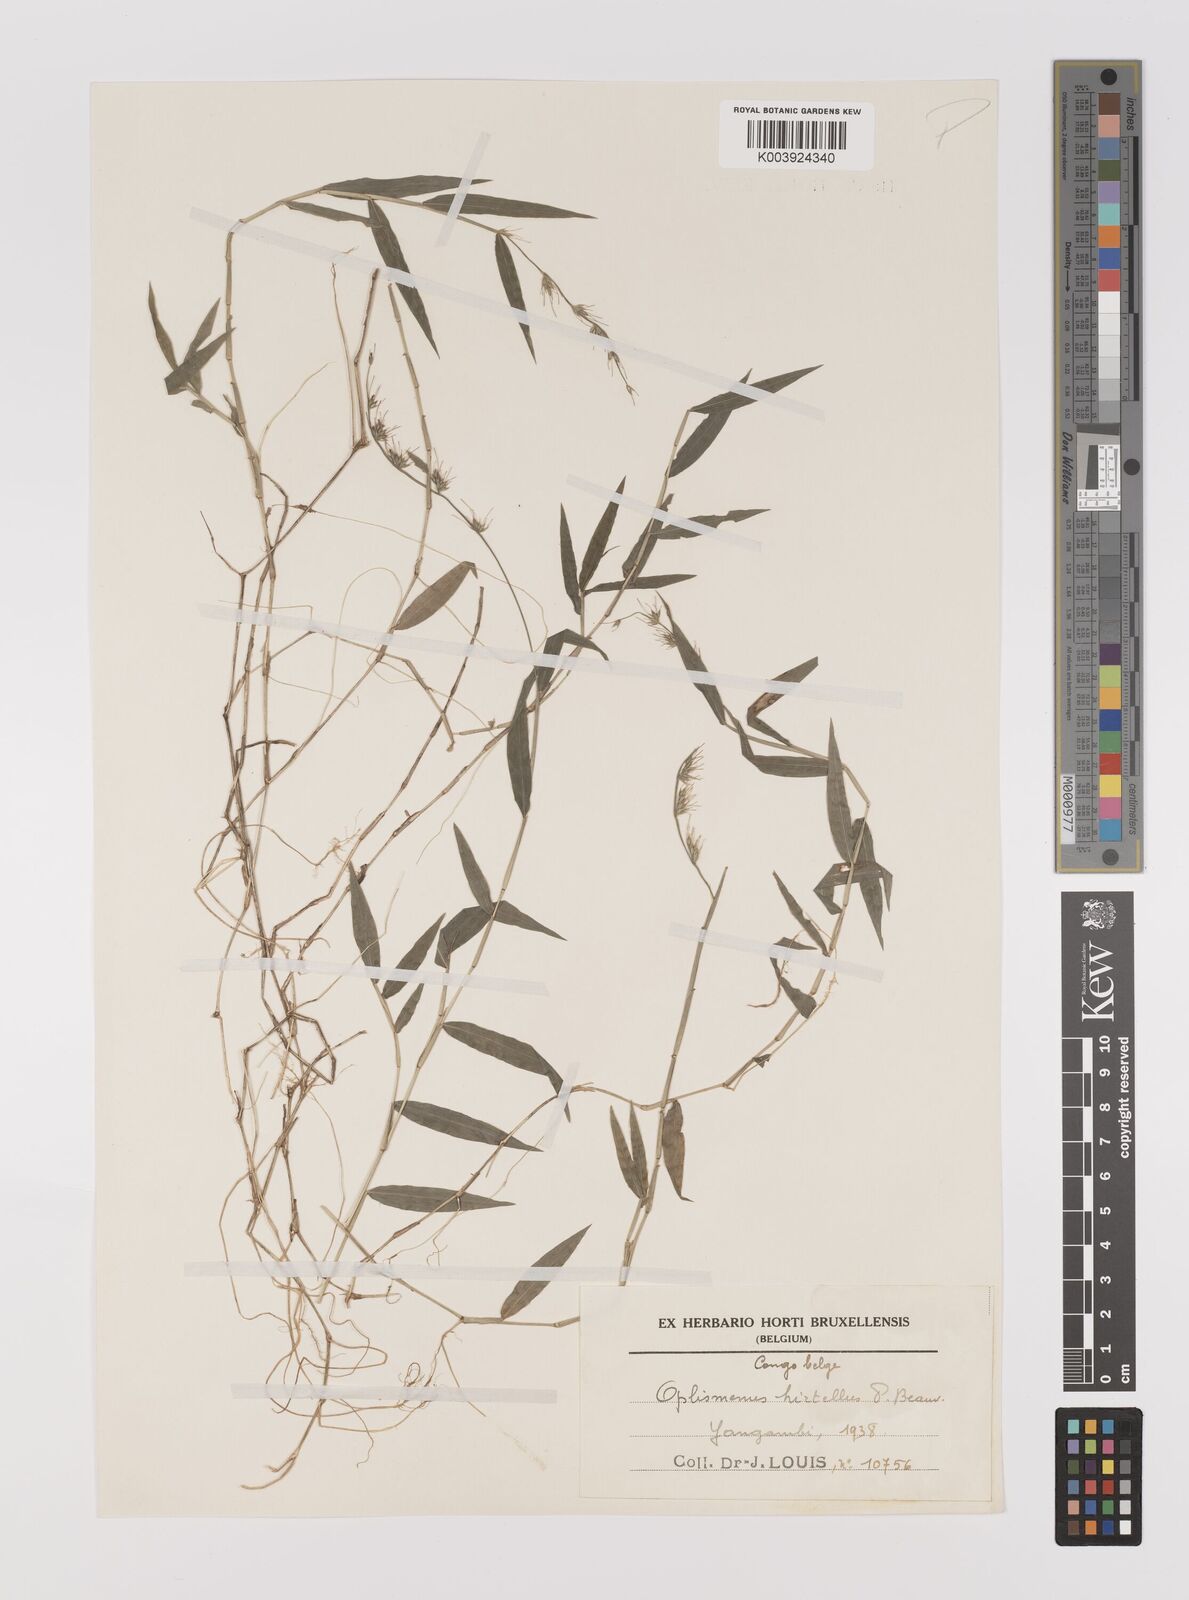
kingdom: Plantae
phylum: Tracheophyta
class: Liliopsida
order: Poales
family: Poaceae
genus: Oplismenus
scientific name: Oplismenus hirtellus
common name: Basketgrass
